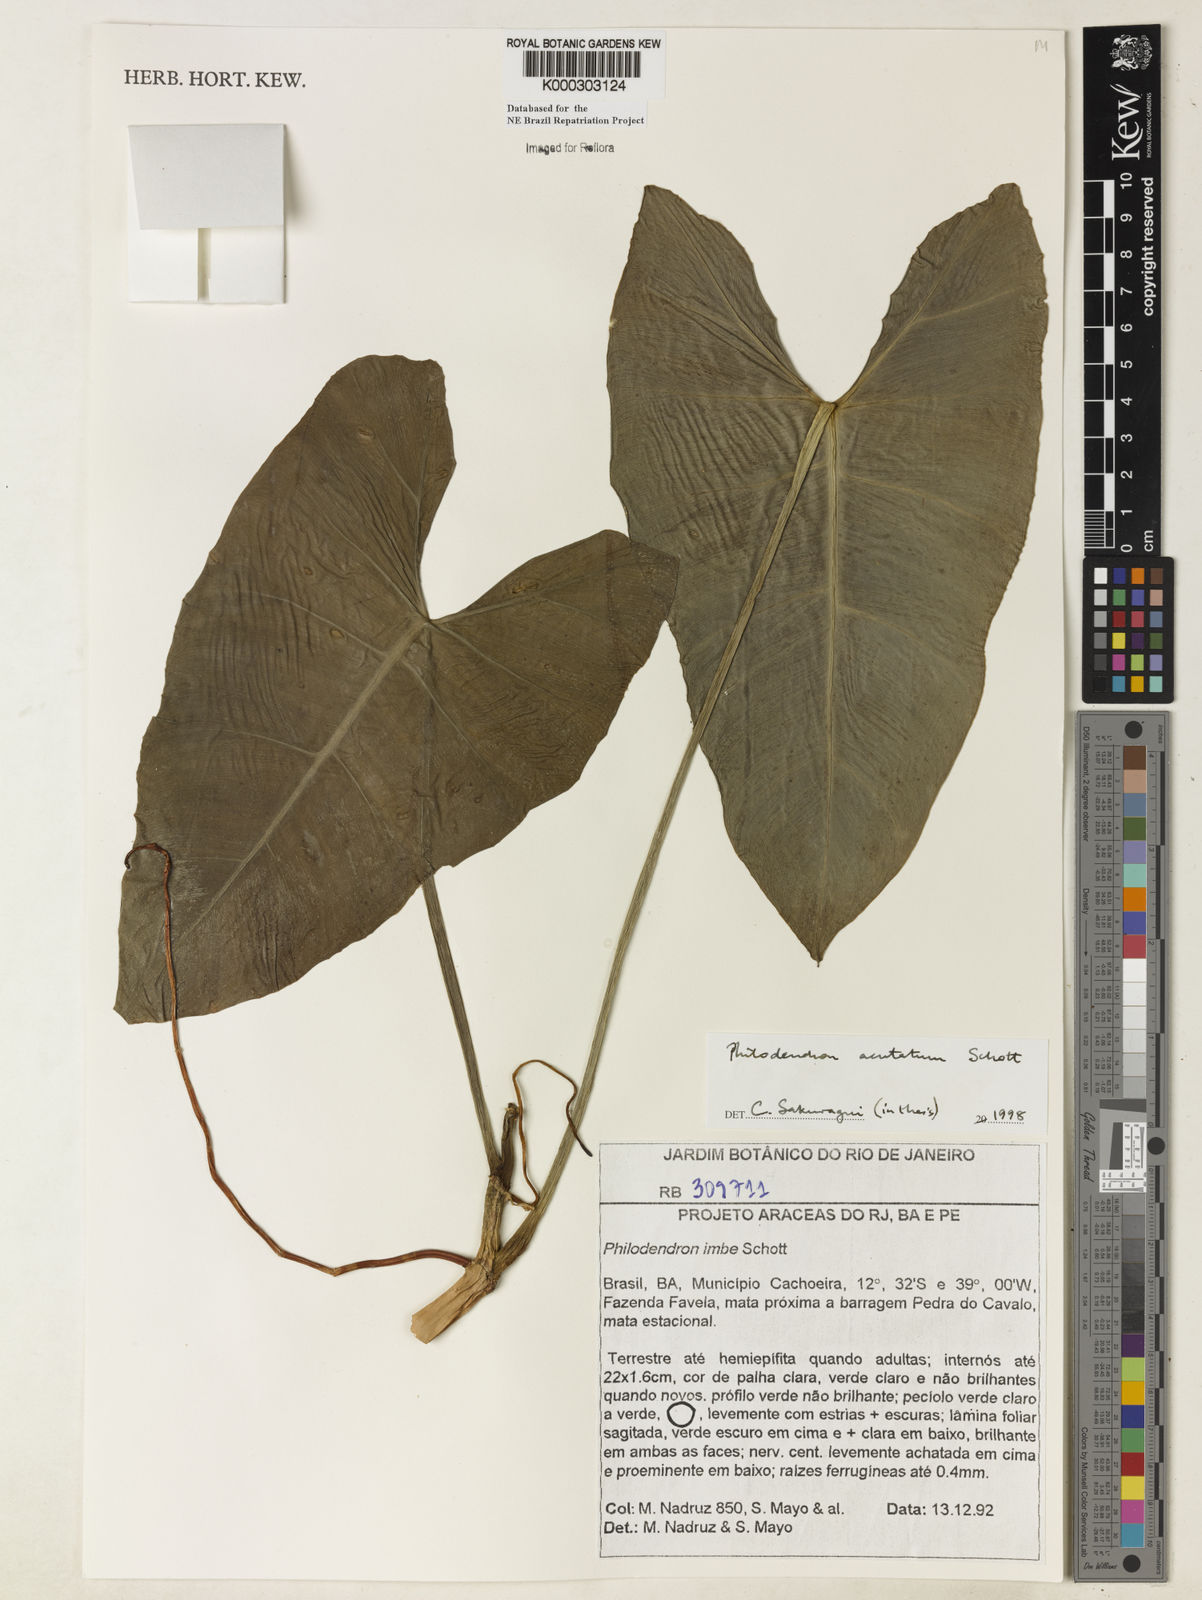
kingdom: Plantae
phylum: Tracheophyta
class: Liliopsida
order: Alismatales
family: Araceae
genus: Philodendron
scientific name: Philodendron quinquenervium
